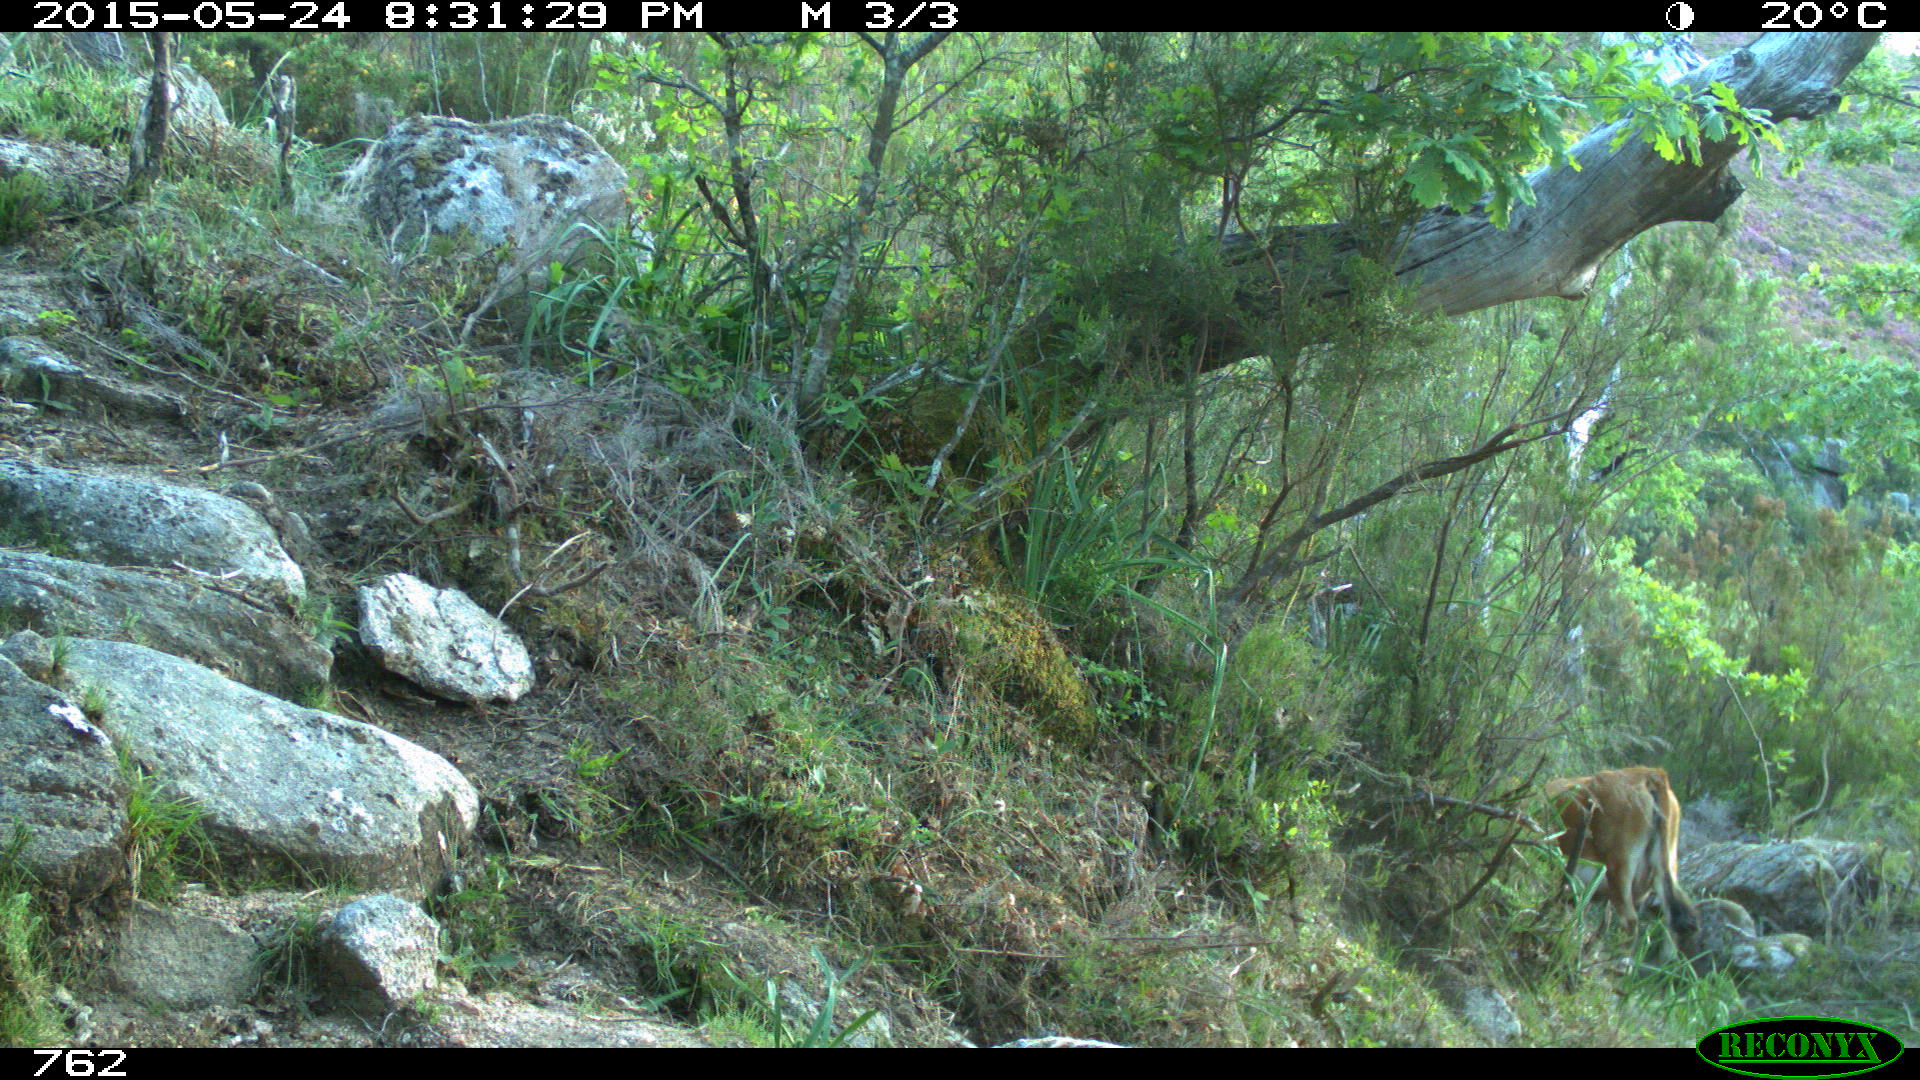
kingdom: Animalia
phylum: Chordata
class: Mammalia
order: Artiodactyla
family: Bovidae
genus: Bos
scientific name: Bos taurus
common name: Domesticated cattle
